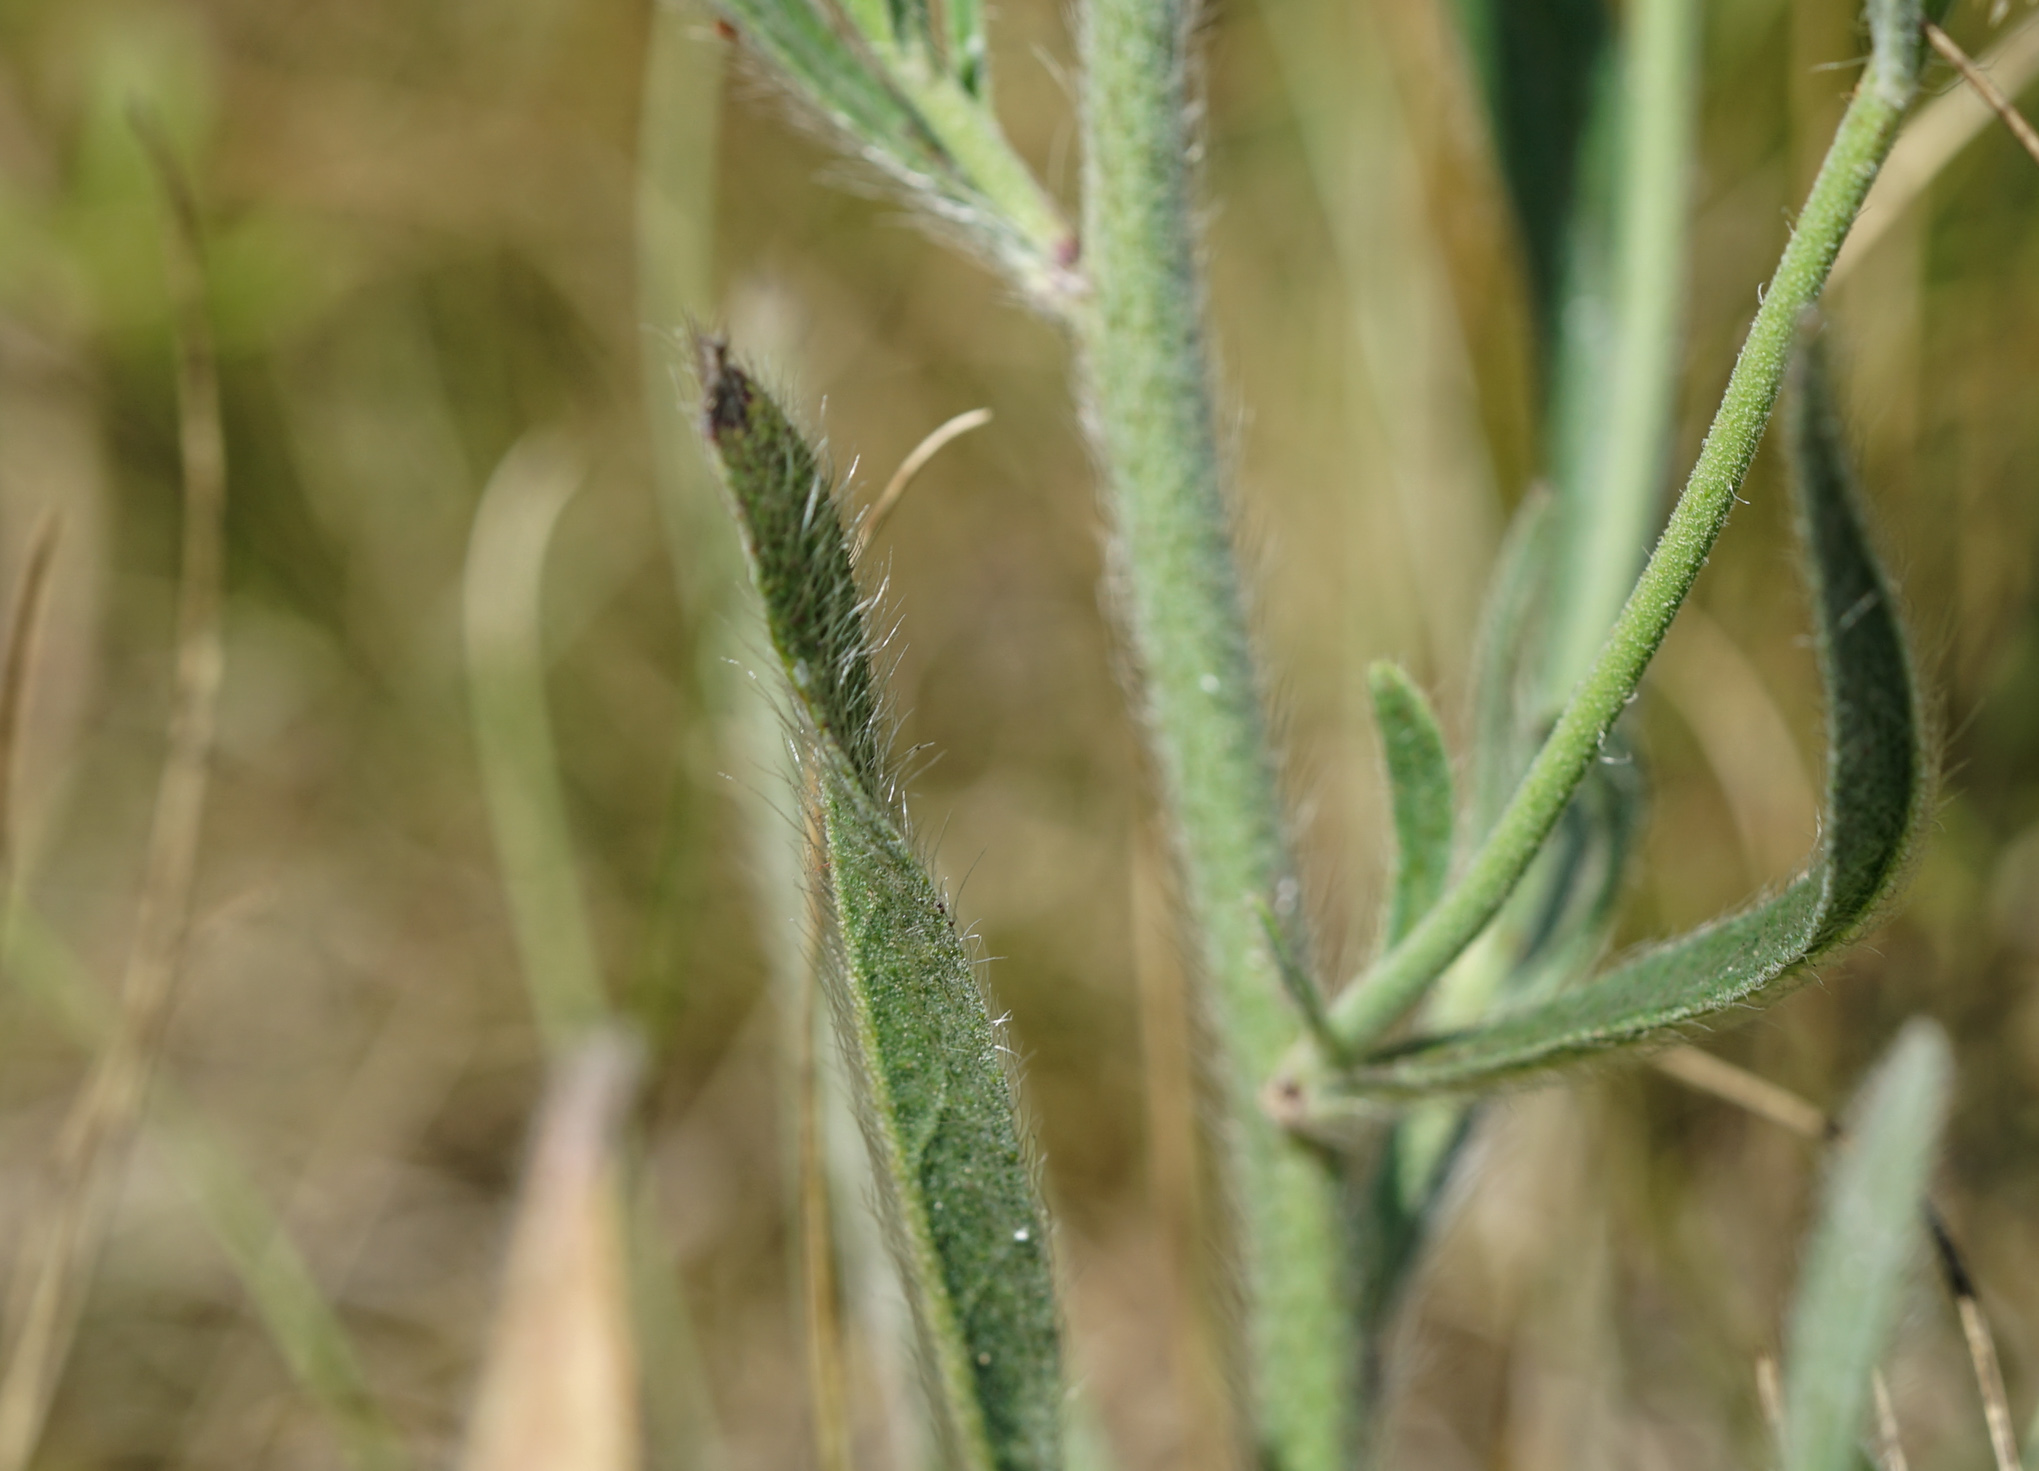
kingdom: Plantae
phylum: Tracheophyta
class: Magnoliopsida
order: Asterales
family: Asteraceae
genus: Pilosella
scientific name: Pilosella echioides
